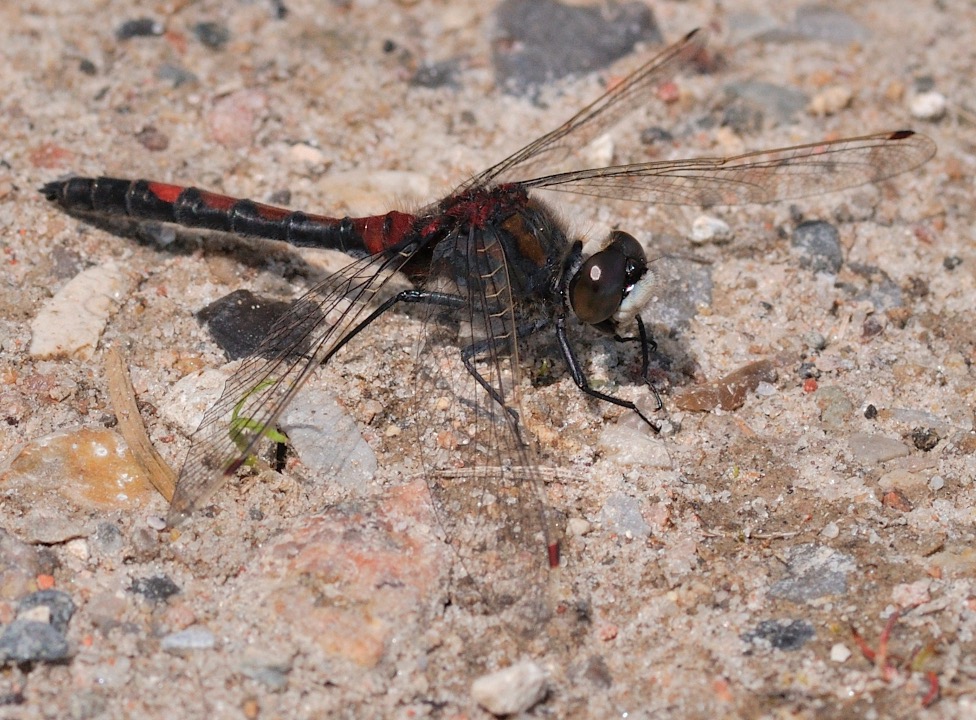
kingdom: Animalia
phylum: Arthropoda
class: Insecta
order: Odonata
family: Libellulidae
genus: Leucorrhinia
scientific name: Leucorrhinia rubicunda
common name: Nordisk kærguldsmed
